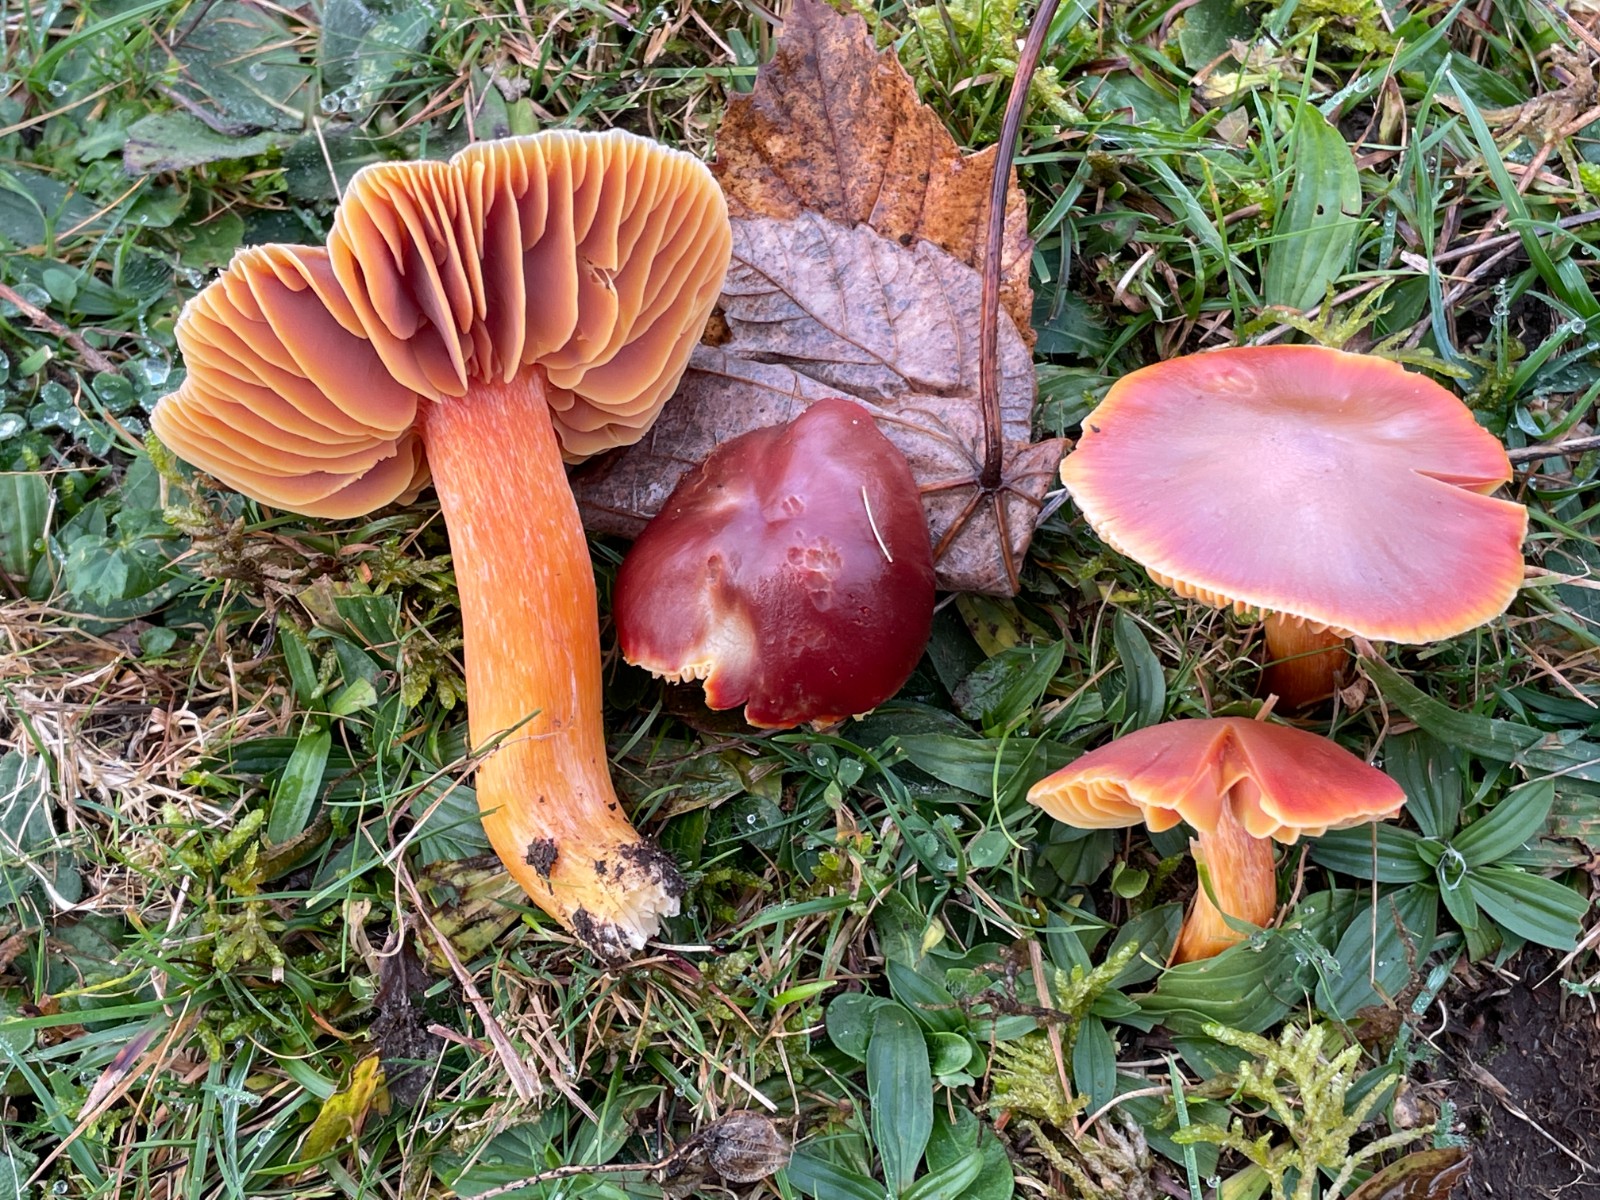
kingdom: Fungi
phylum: Basidiomycota
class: Agaricomycetes
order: Agaricales
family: Hygrophoraceae
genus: Hygrocybe
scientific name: Hygrocybe punicea
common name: skarlagen-vokshat
